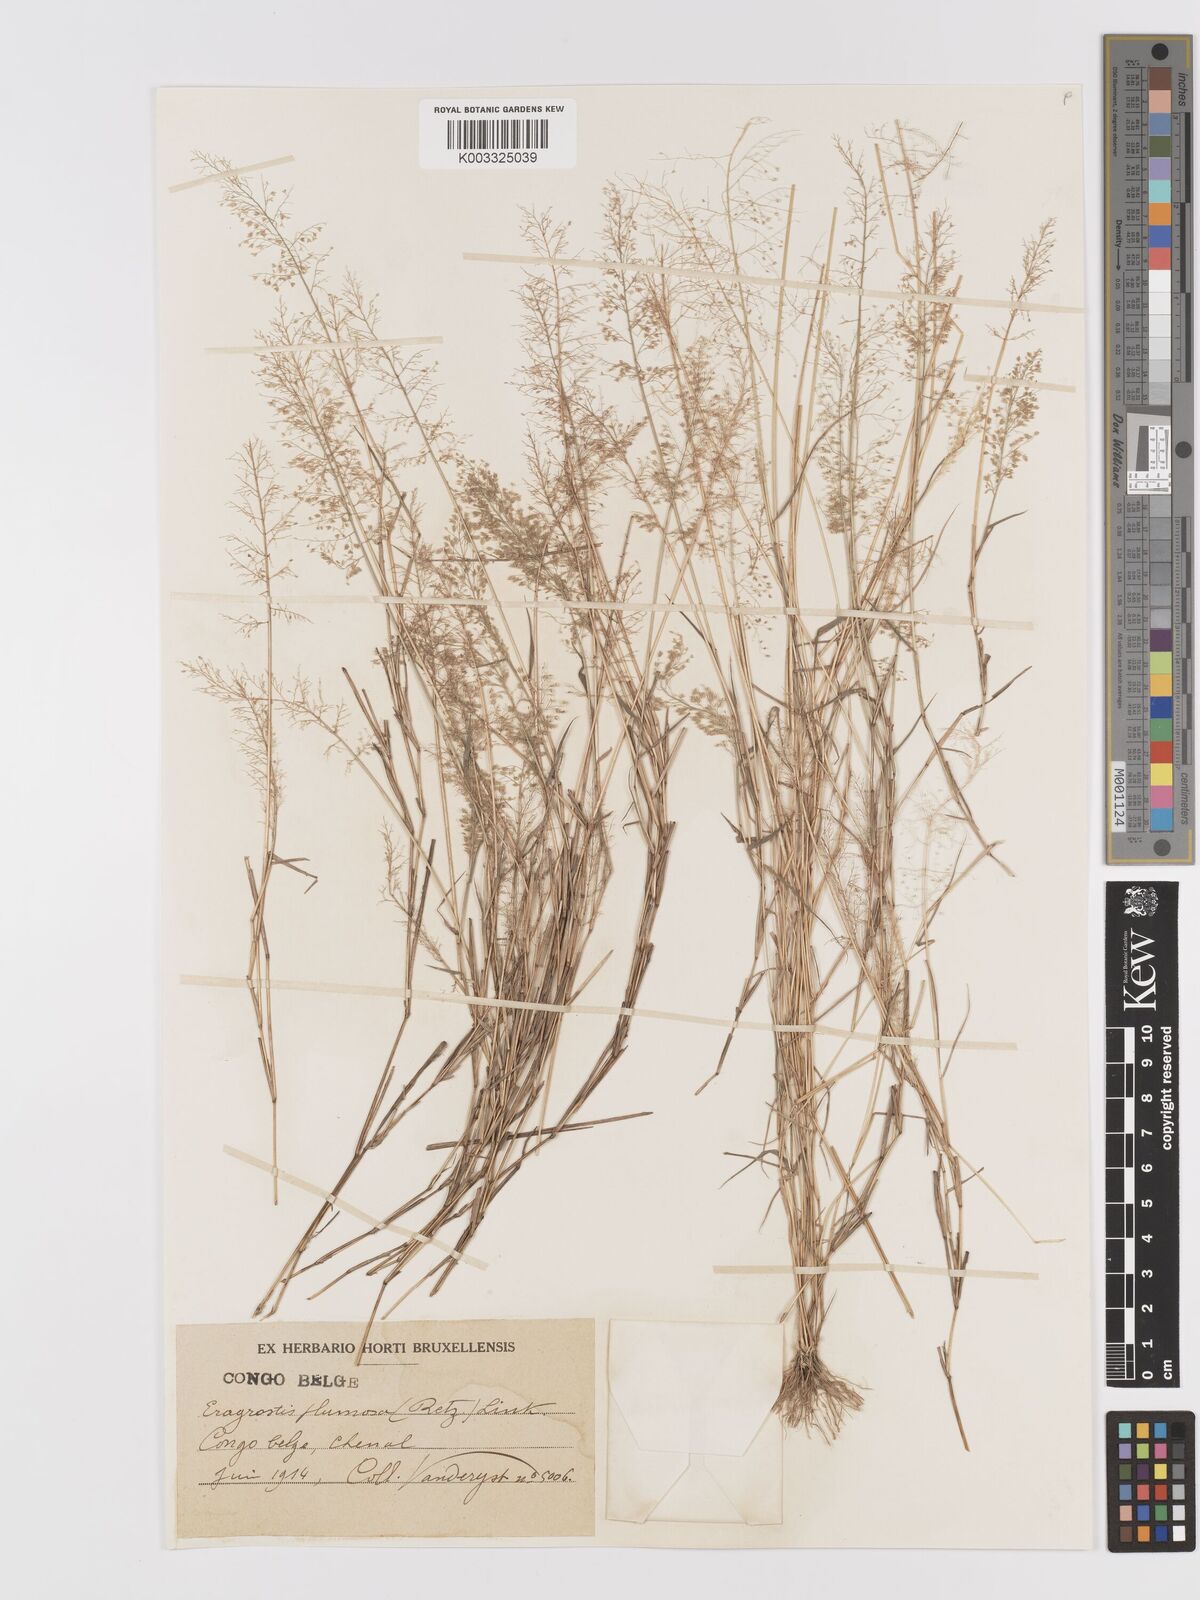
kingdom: Plantae
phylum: Tracheophyta
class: Liliopsida
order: Poales
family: Poaceae
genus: Eragrostis
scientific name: Eragrostis tenella
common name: Japanese lovegrass
